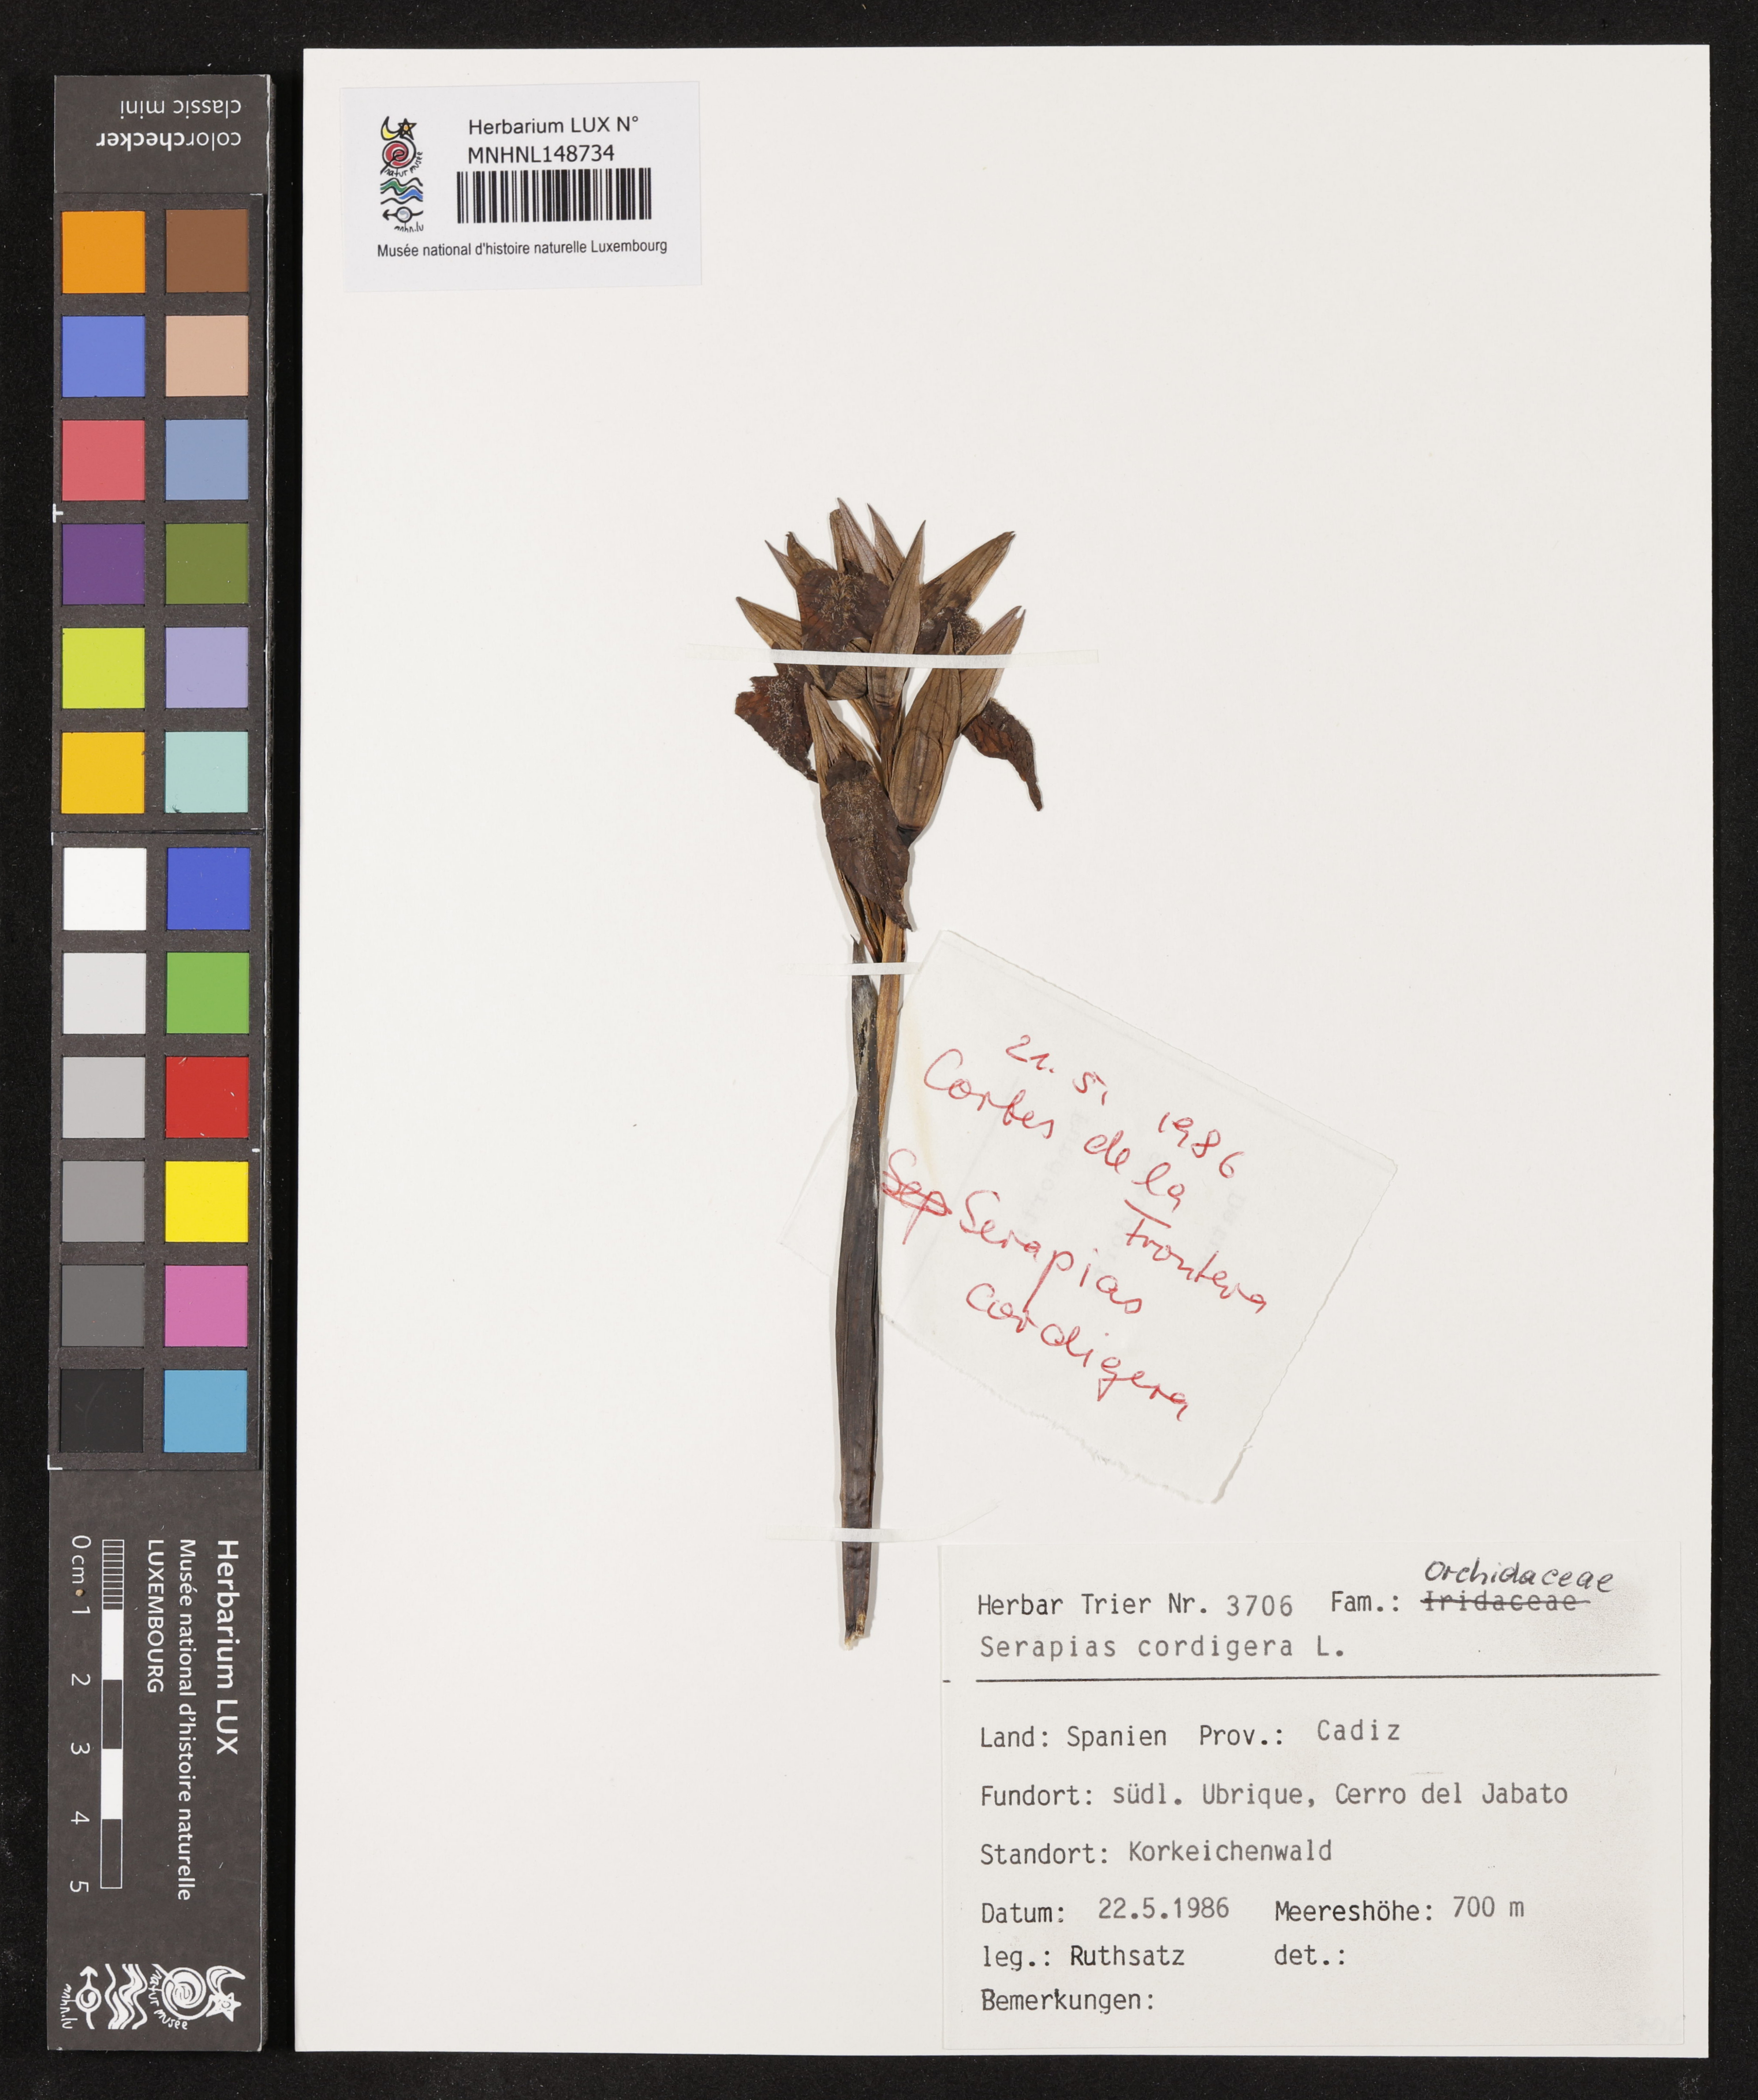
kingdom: Plantae
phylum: Tracheophyta
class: Liliopsida
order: Asparagales
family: Orchidaceae
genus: Serapias
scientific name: Serapias cordigera
